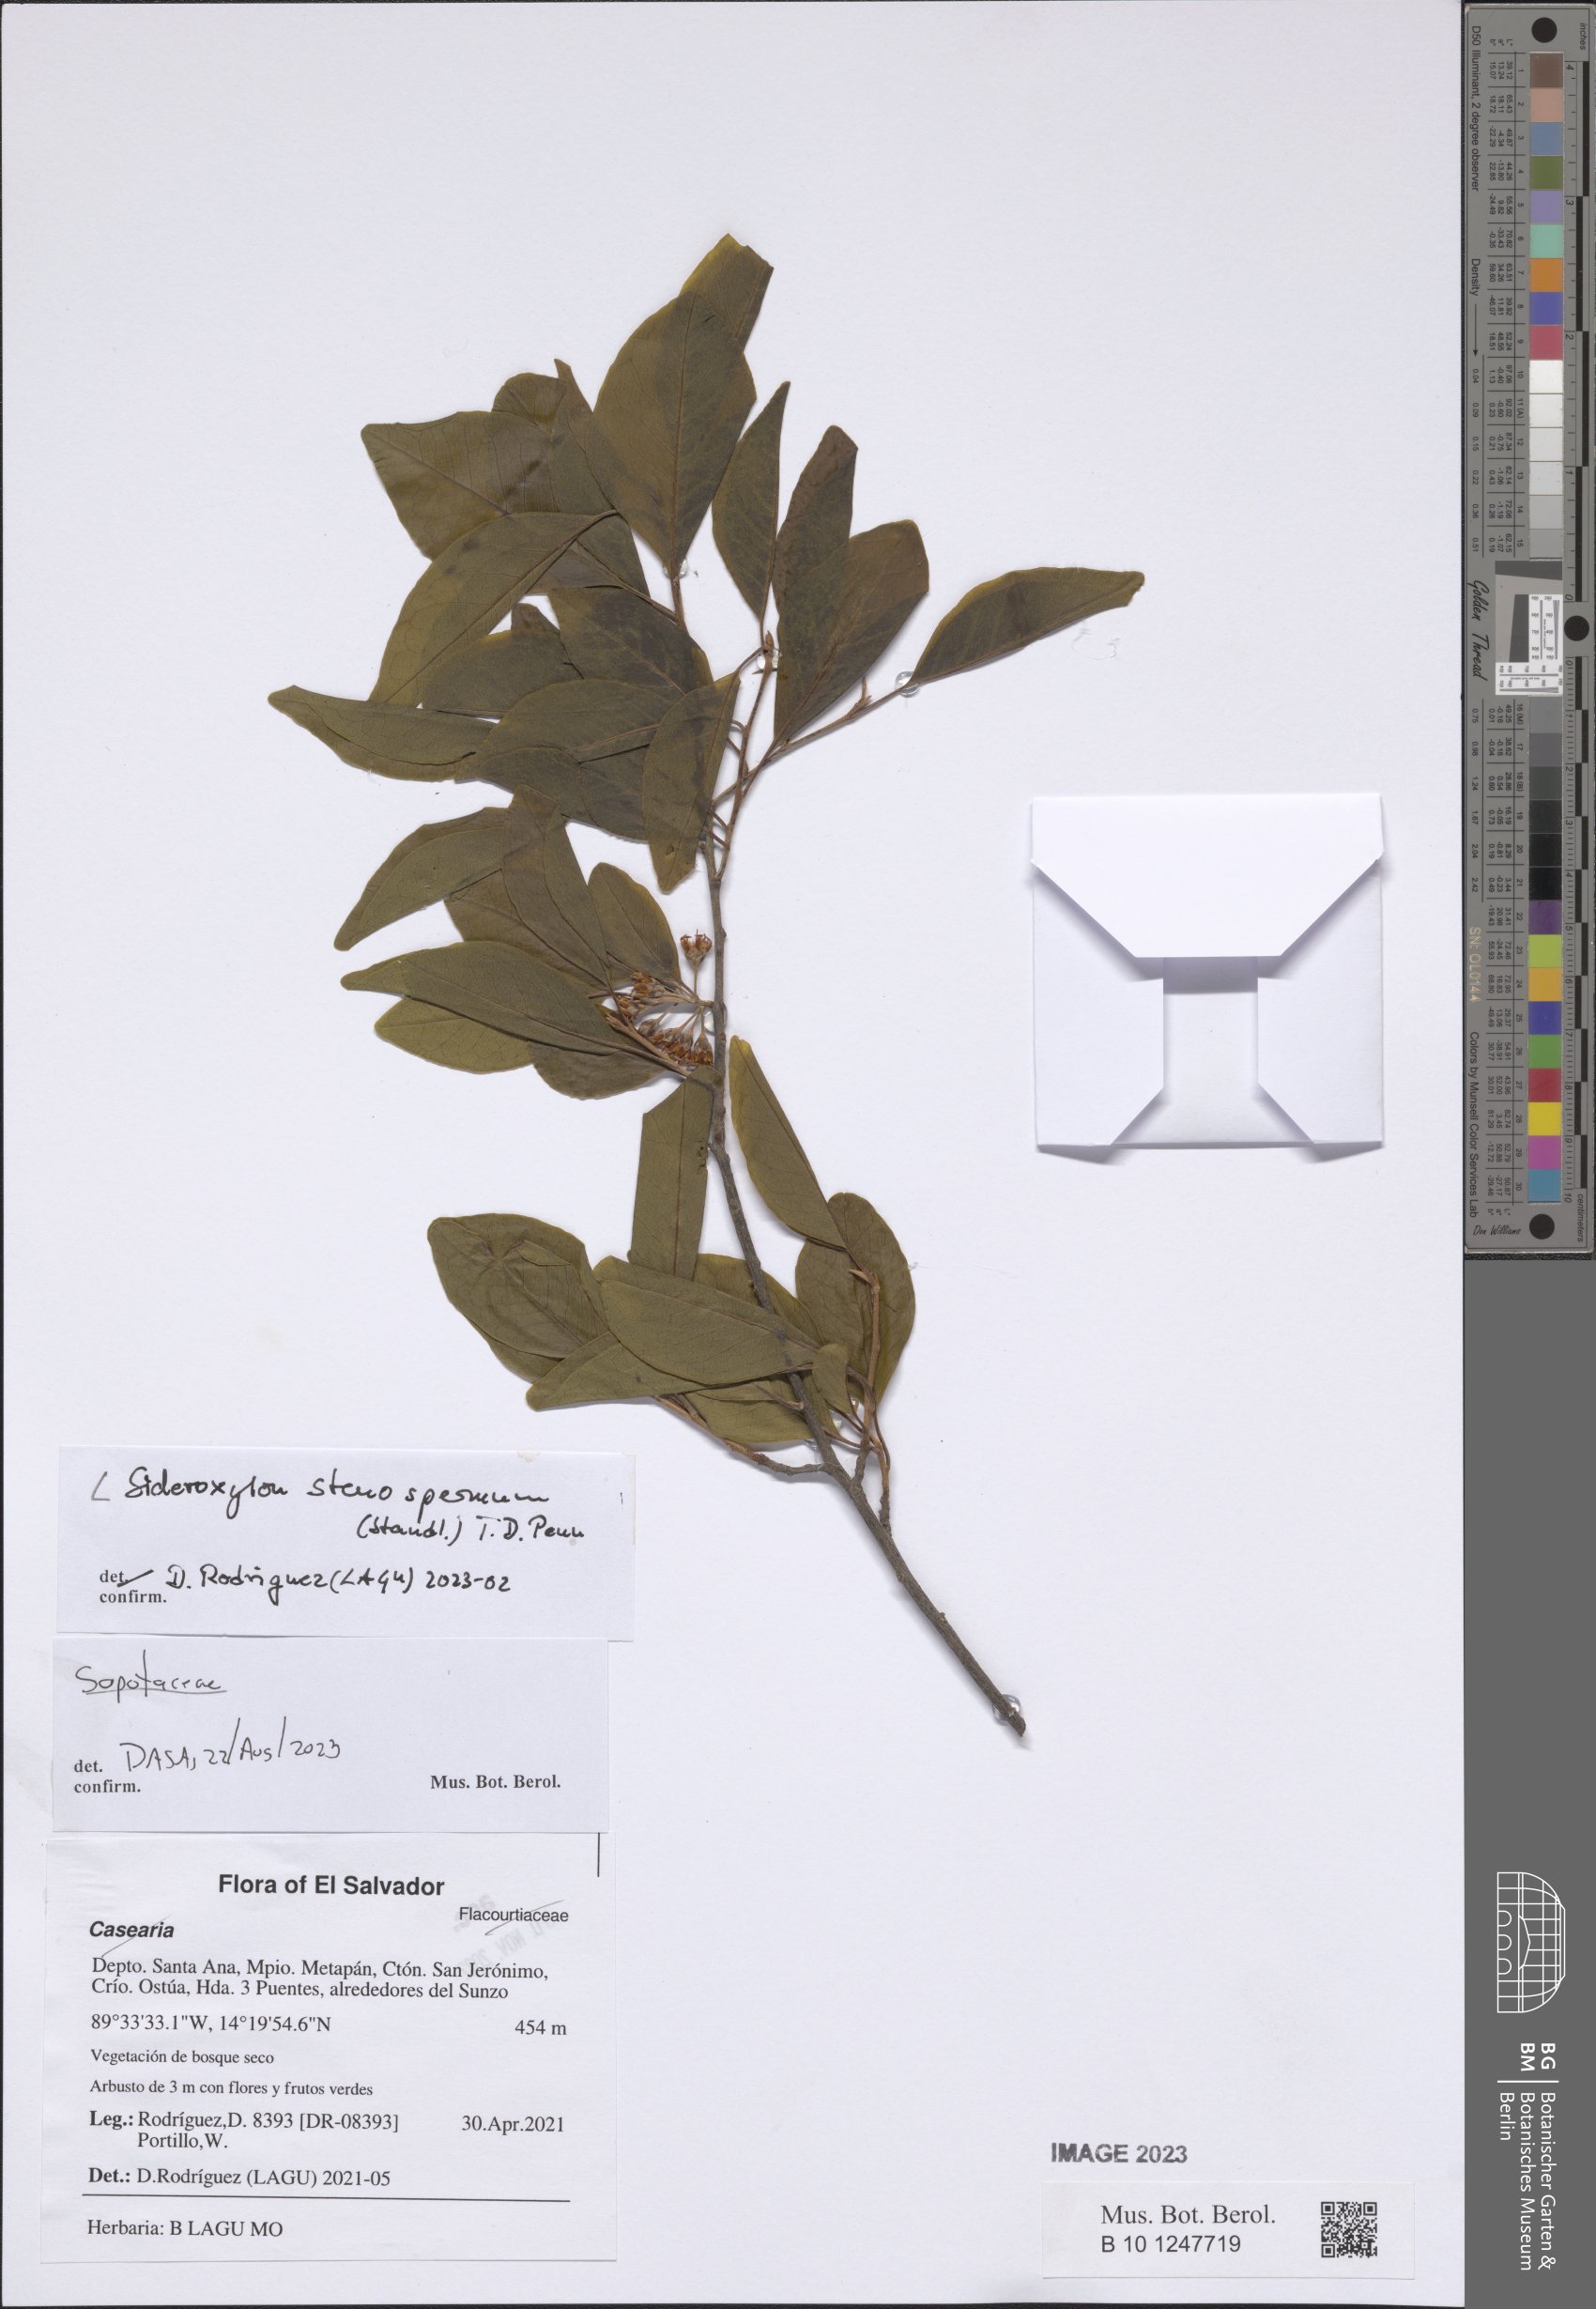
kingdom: Plantae
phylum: Tracheophyta
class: Magnoliopsida
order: Ericales
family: Sapotaceae
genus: Sideroxylon
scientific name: Sideroxylon stenospermum
